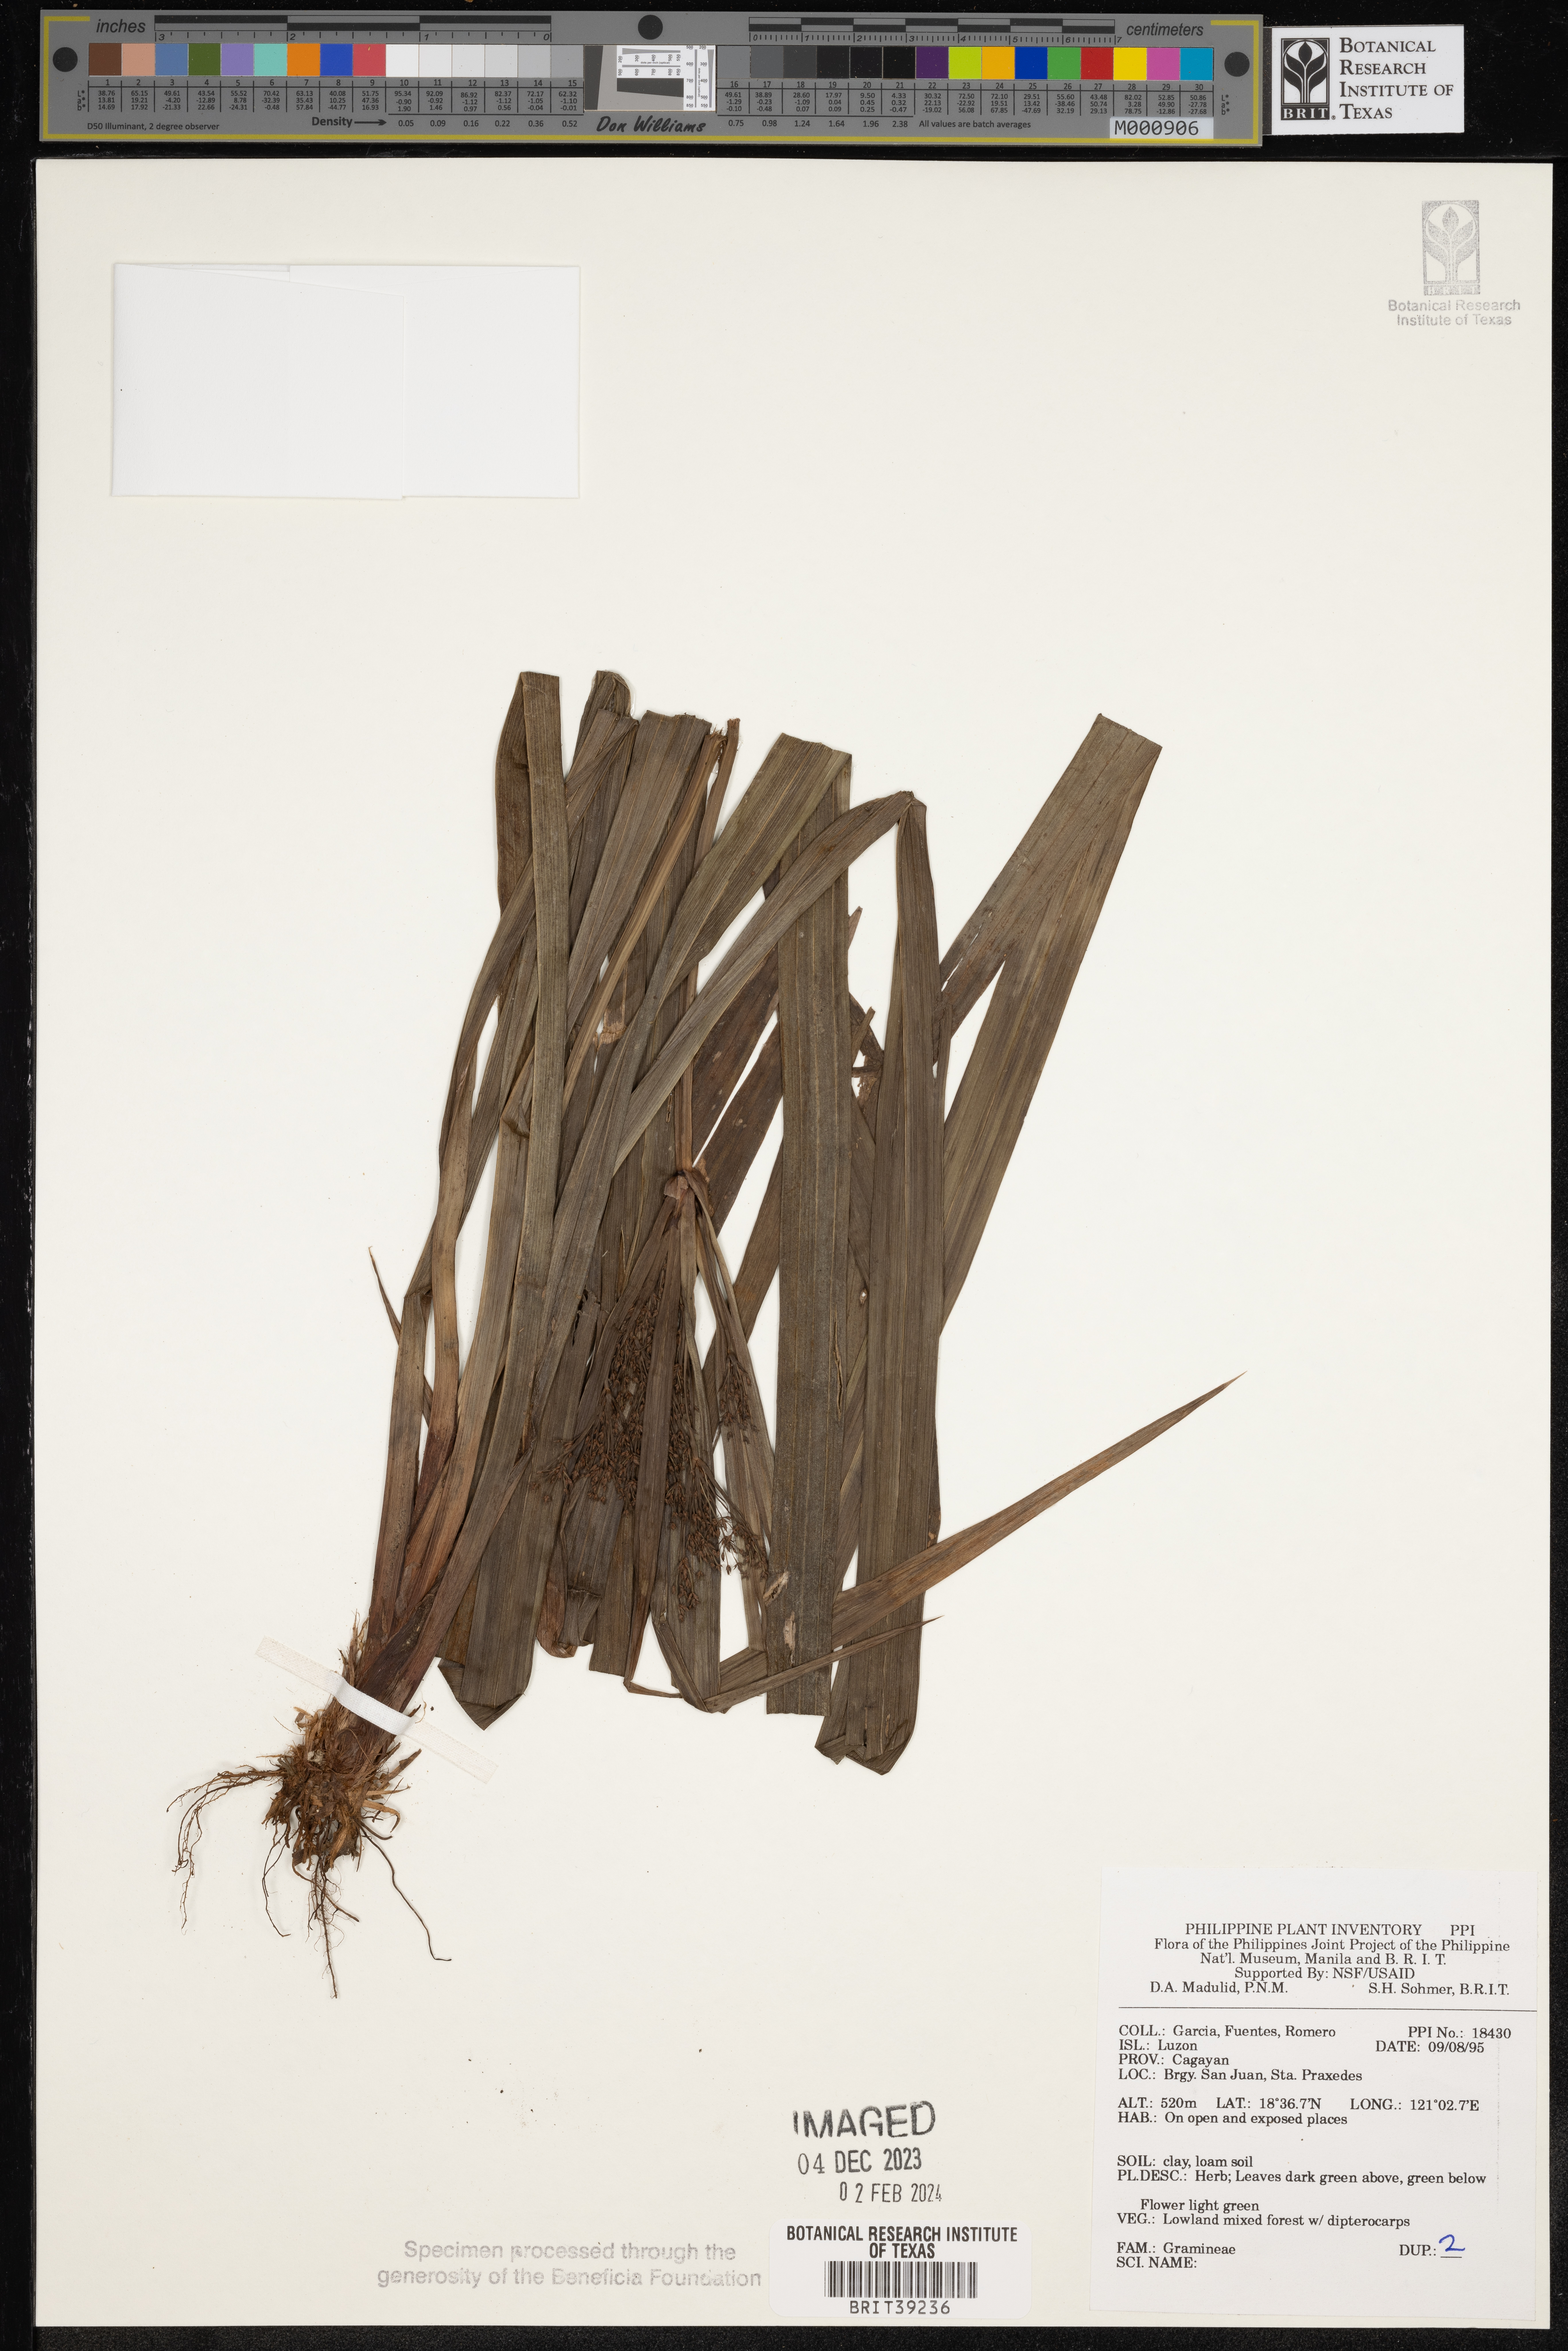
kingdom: Plantae
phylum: Tracheophyta
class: Liliopsida
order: Poales
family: Poaceae
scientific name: Poaceae
